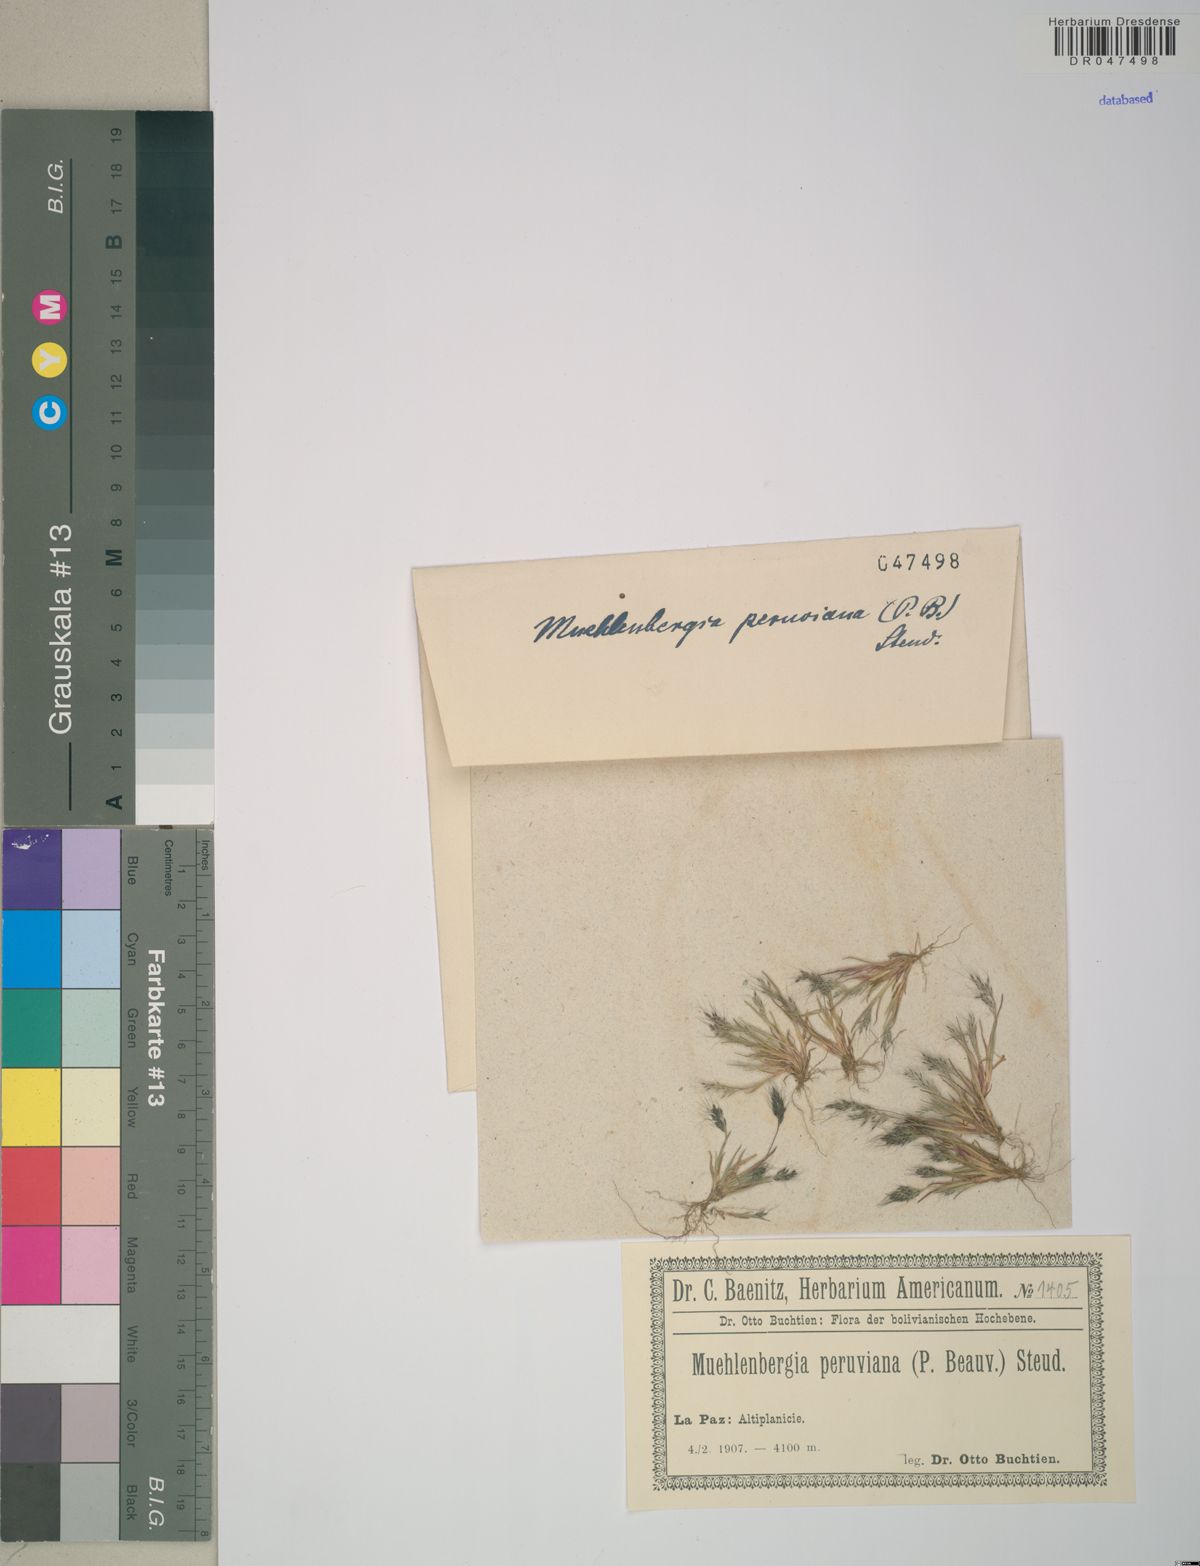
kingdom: Plantae
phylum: Tracheophyta
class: Liliopsida
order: Poales
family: Poaceae
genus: Muhlenbergia
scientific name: Muhlenbergia peruviana
